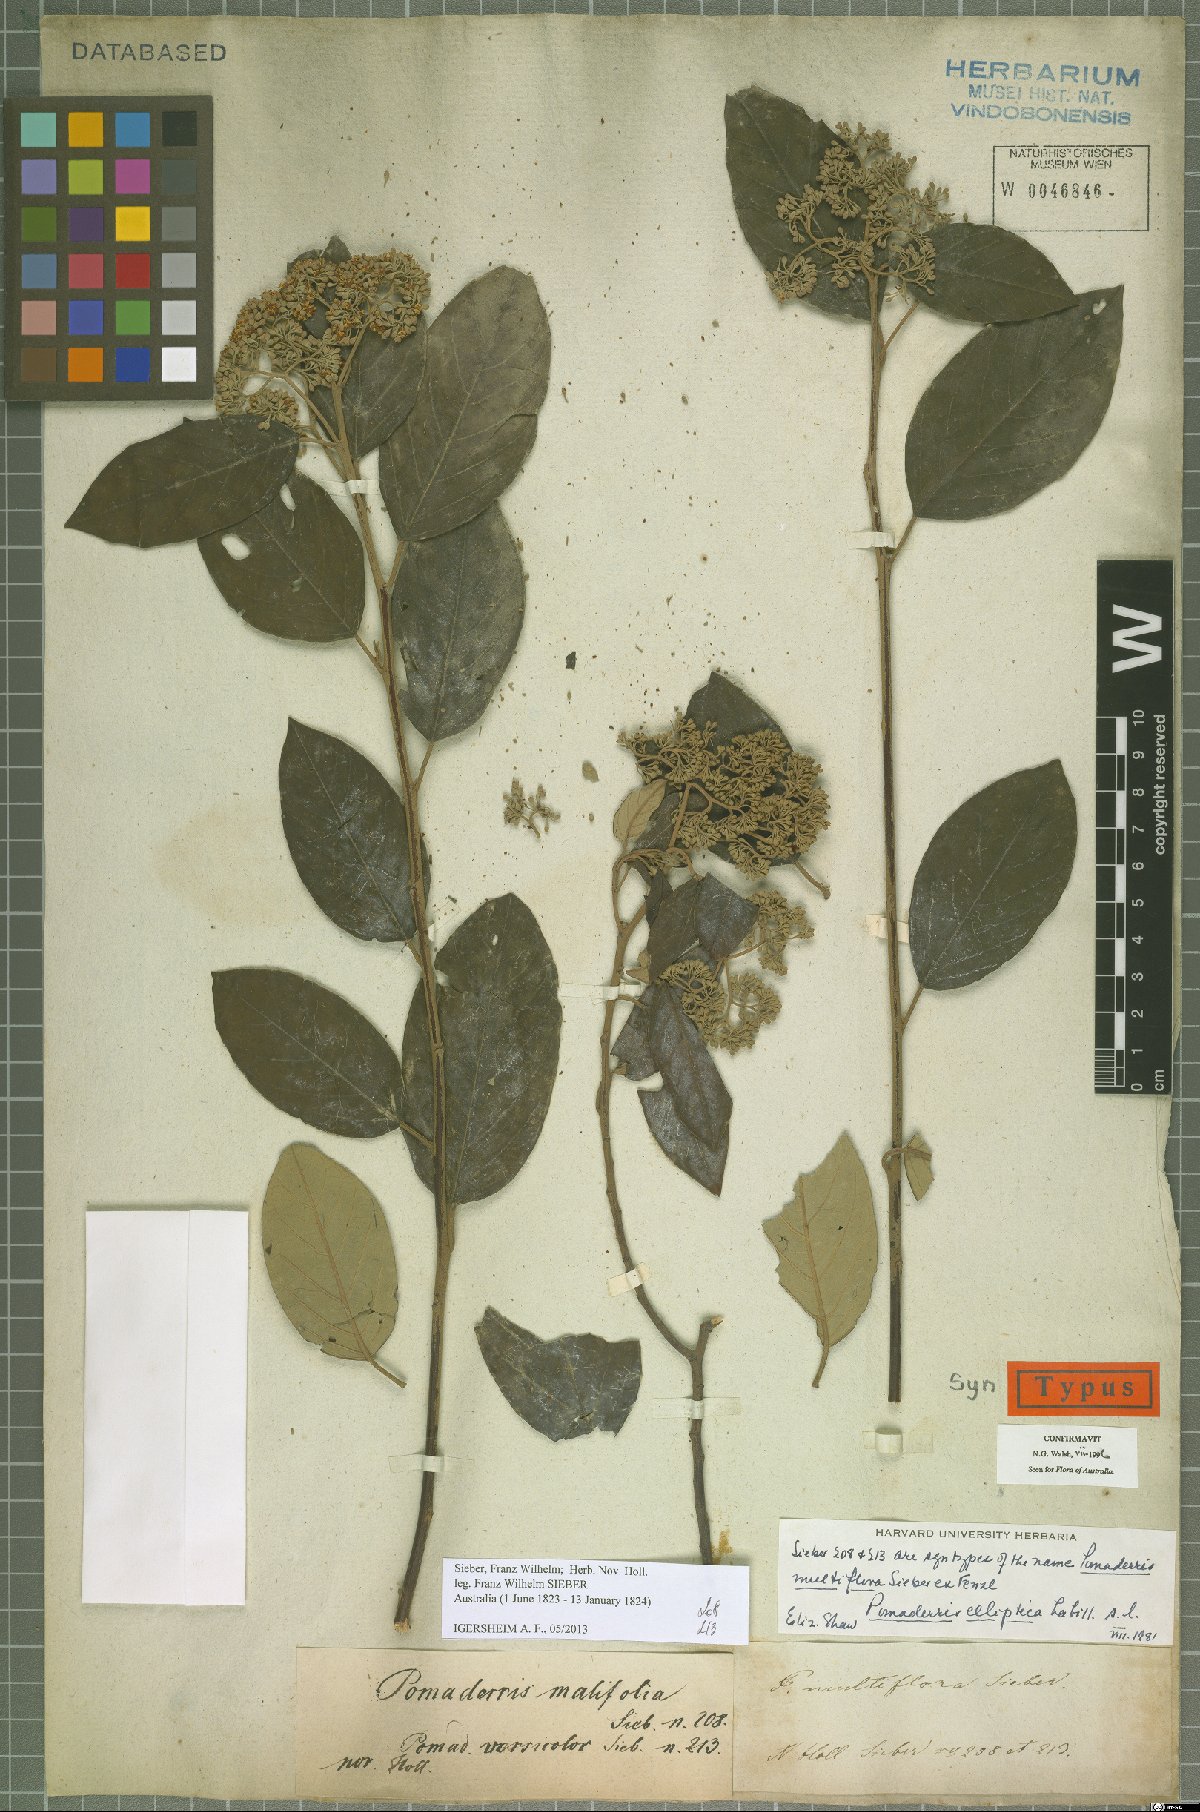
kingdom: Plantae
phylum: Tracheophyta
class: Magnoliopsida
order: Rosales
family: Rhamnaceae
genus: Pomaderris
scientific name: Pomaderris elliptica
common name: Yellow-dogwood
